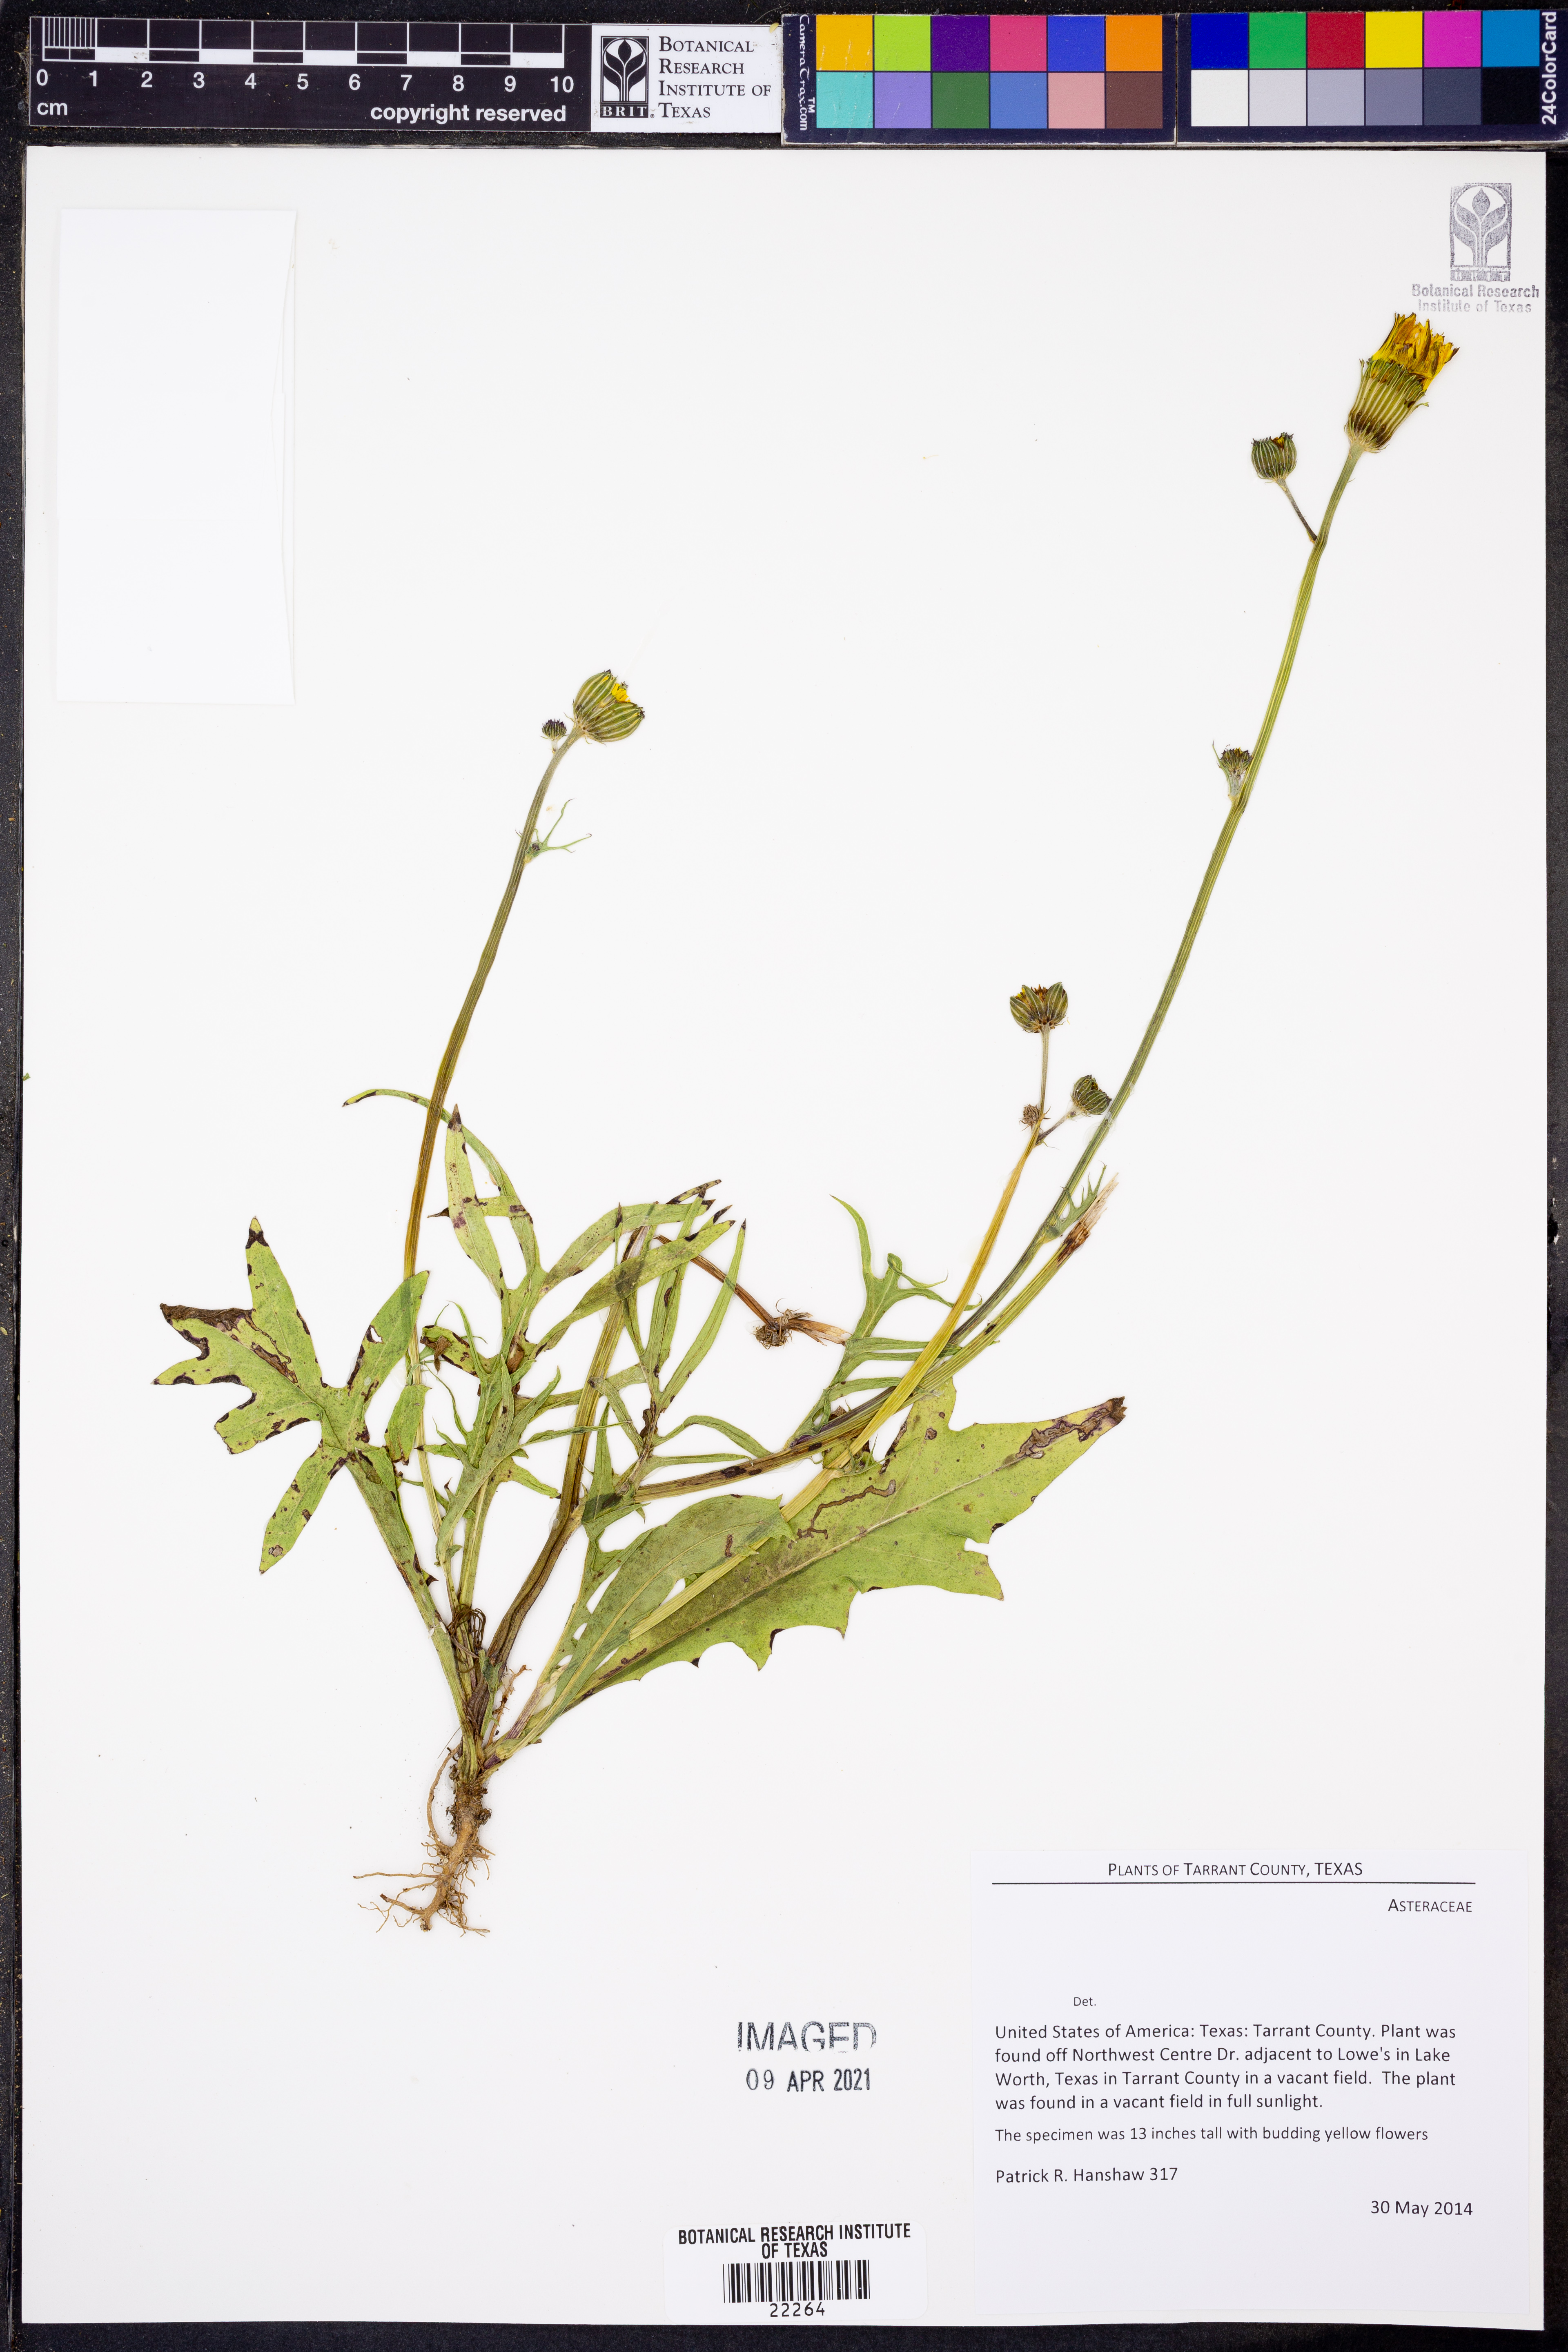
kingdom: Plantae
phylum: Tracheophyta
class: Magnoliopsida
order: Asterales
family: Asteraceae
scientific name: Asteraceae
